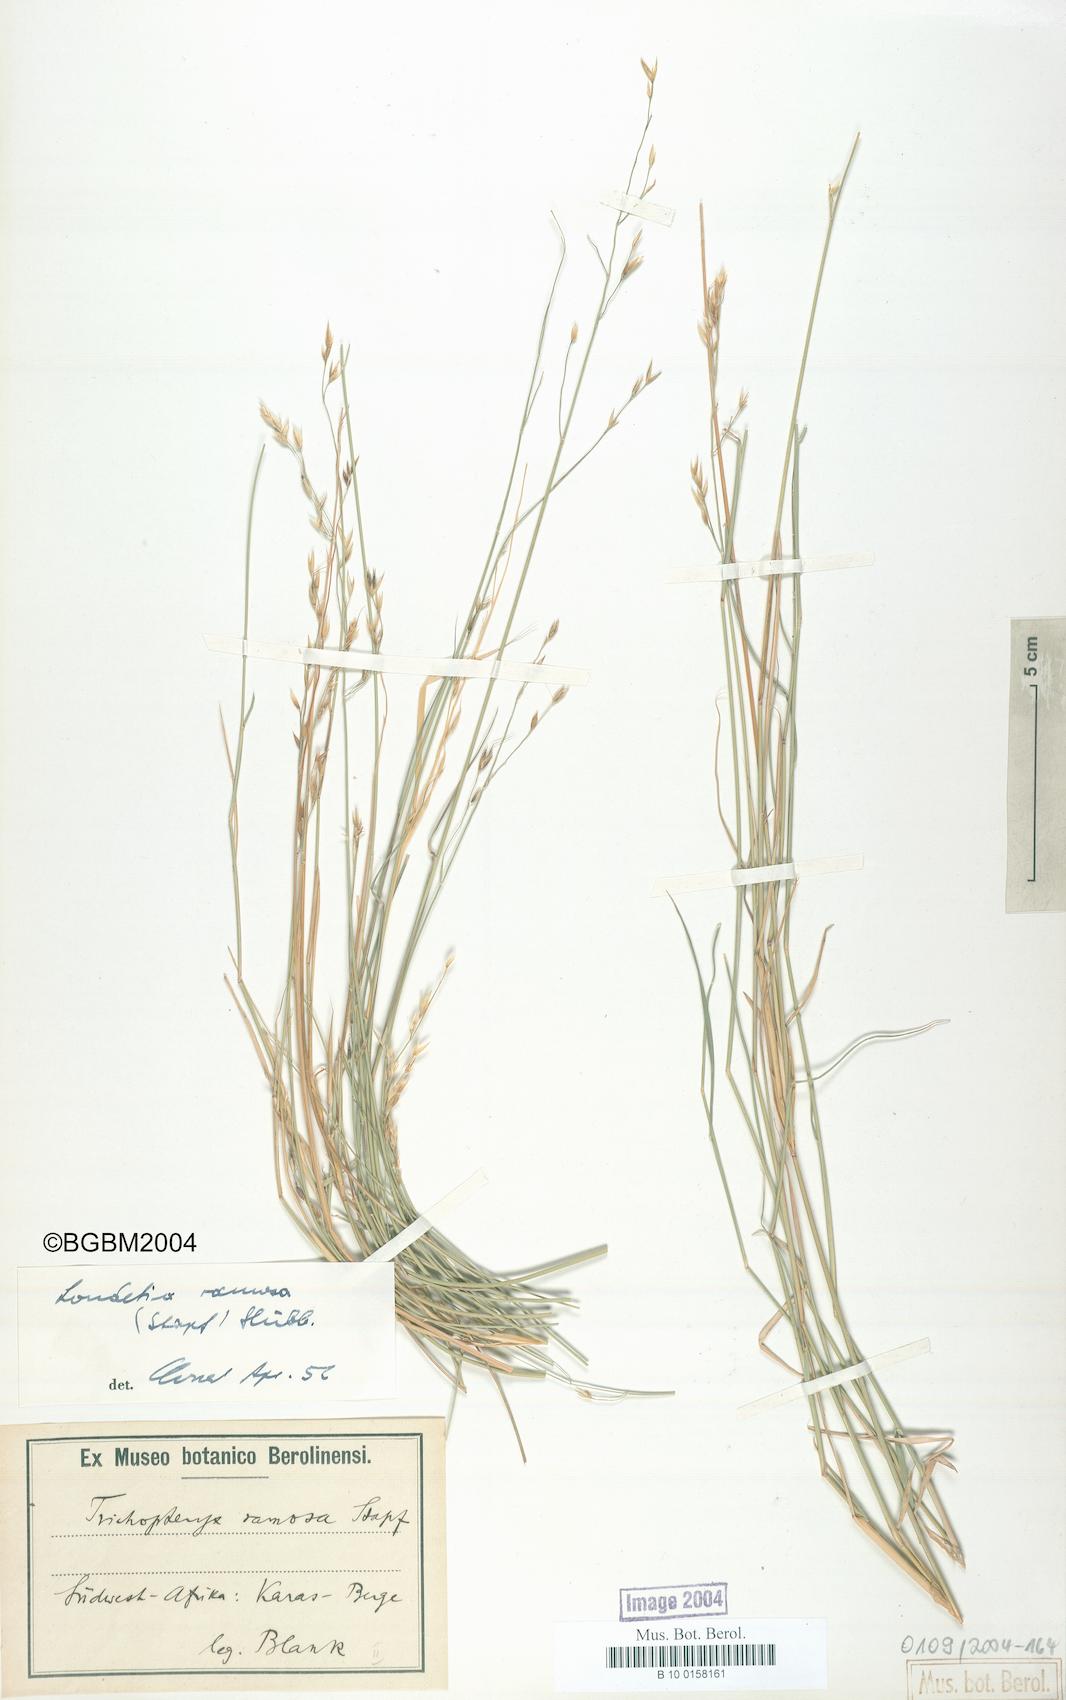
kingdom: Plantae
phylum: Tracheophyta
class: Liliopsida
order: Poales
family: Poaceae
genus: Danthoniopsis
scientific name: Danthoniopsis ramosa
